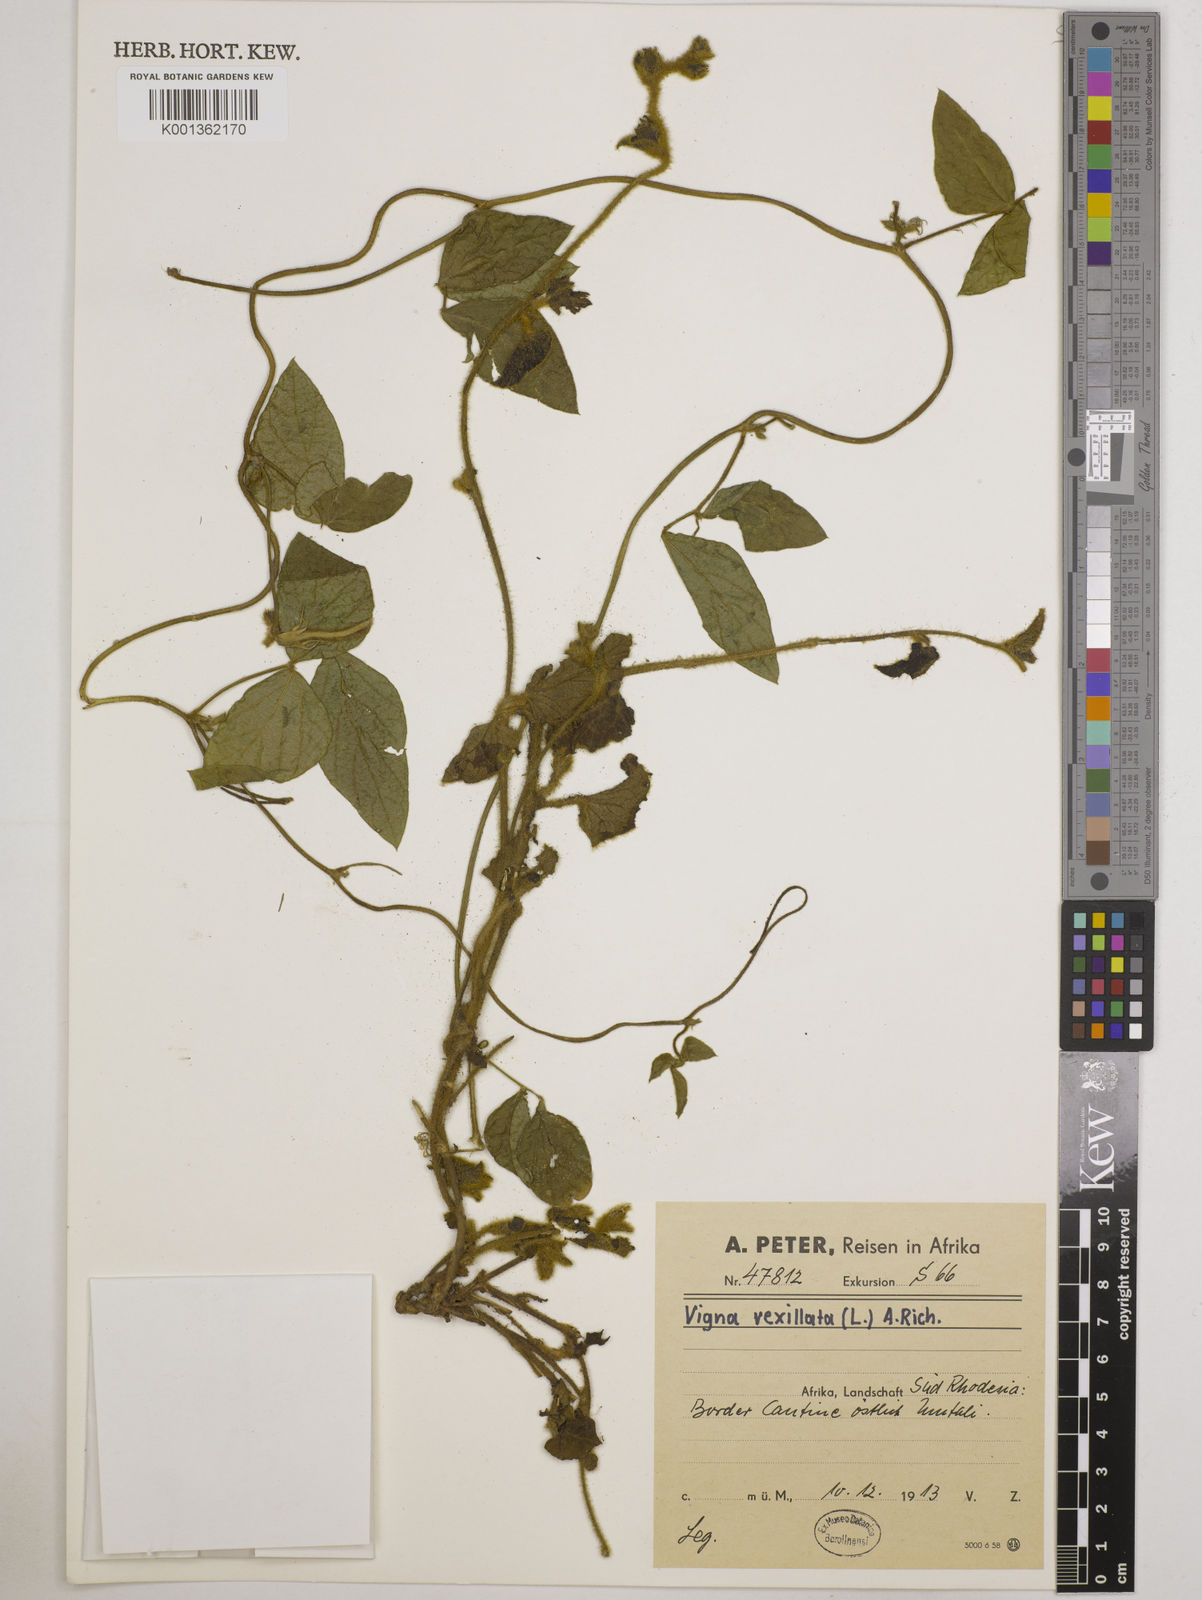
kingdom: Plantae
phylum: Tracheophyta
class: Magnoliopsida
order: Fabales
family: Fabaceae
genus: Vigna
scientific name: Vigna vexillata
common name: Zombi pea
